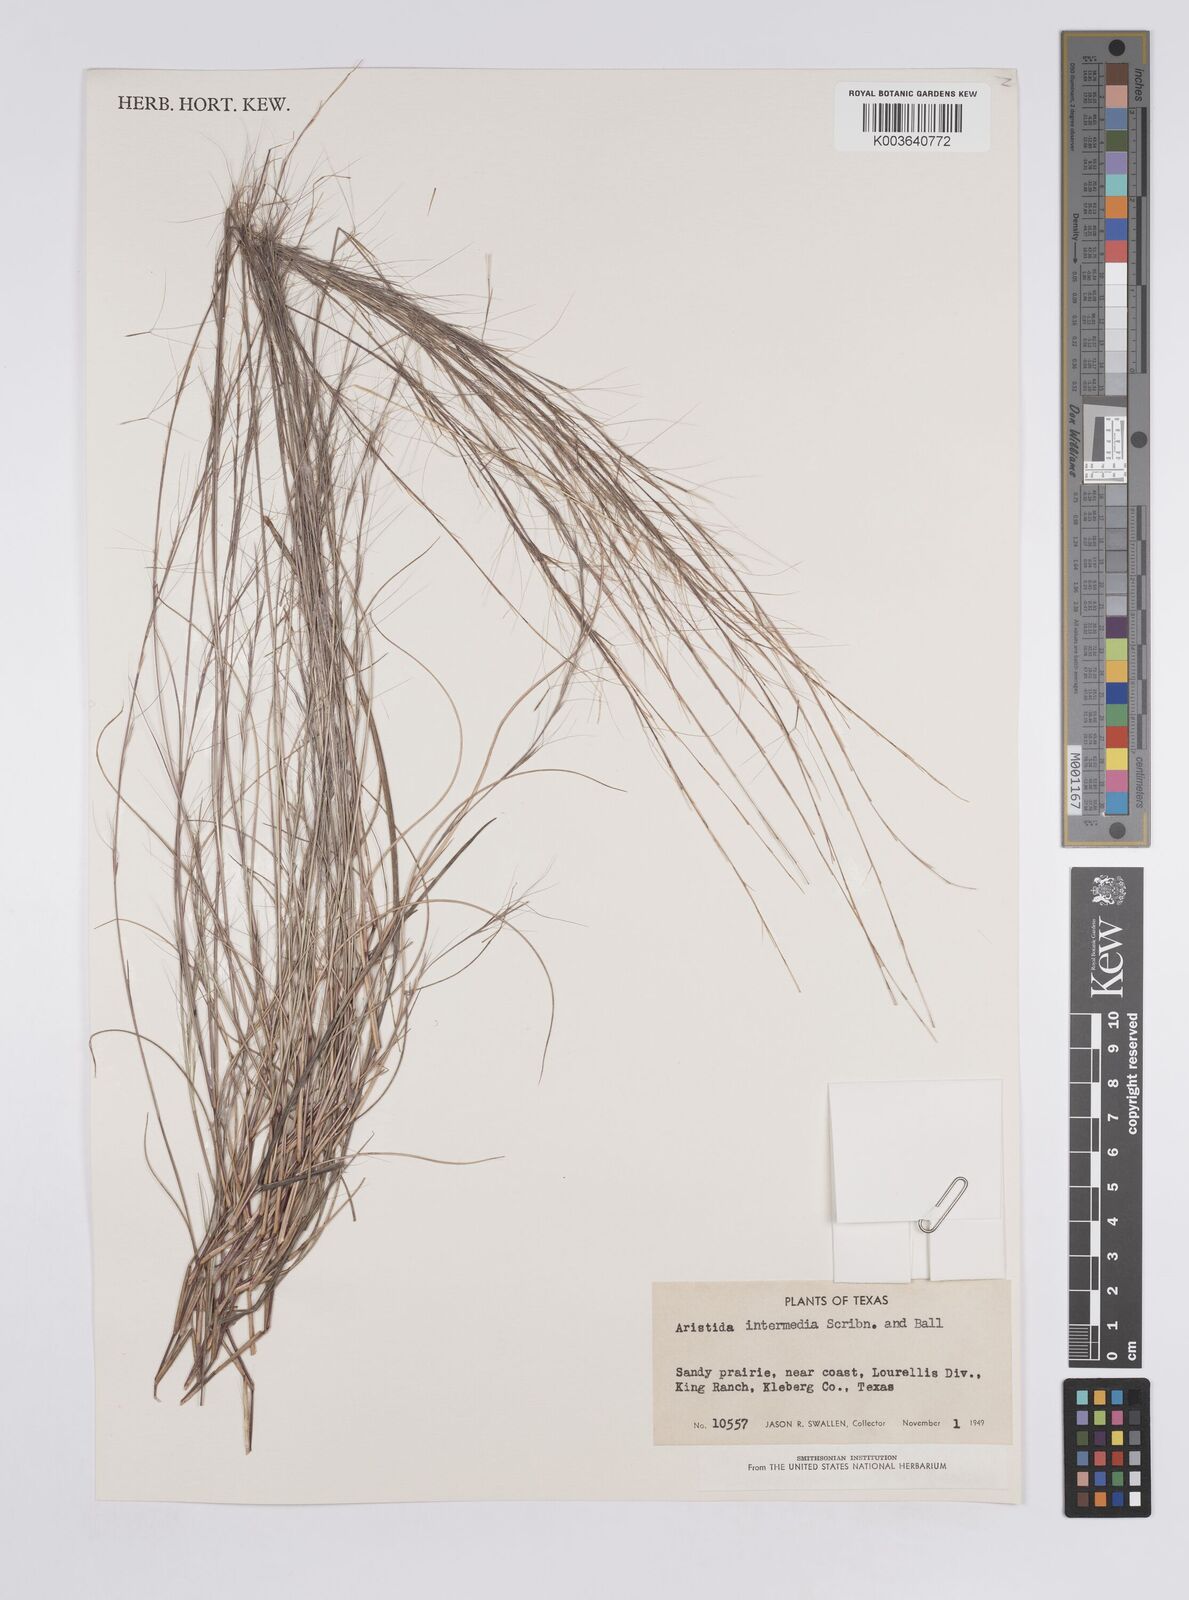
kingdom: Plantae
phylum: Tracheophyta
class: Liliopsida
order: Poales
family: Poaceae
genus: Aristida
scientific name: Aristida adscensionis
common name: Sixweeks threeawn
